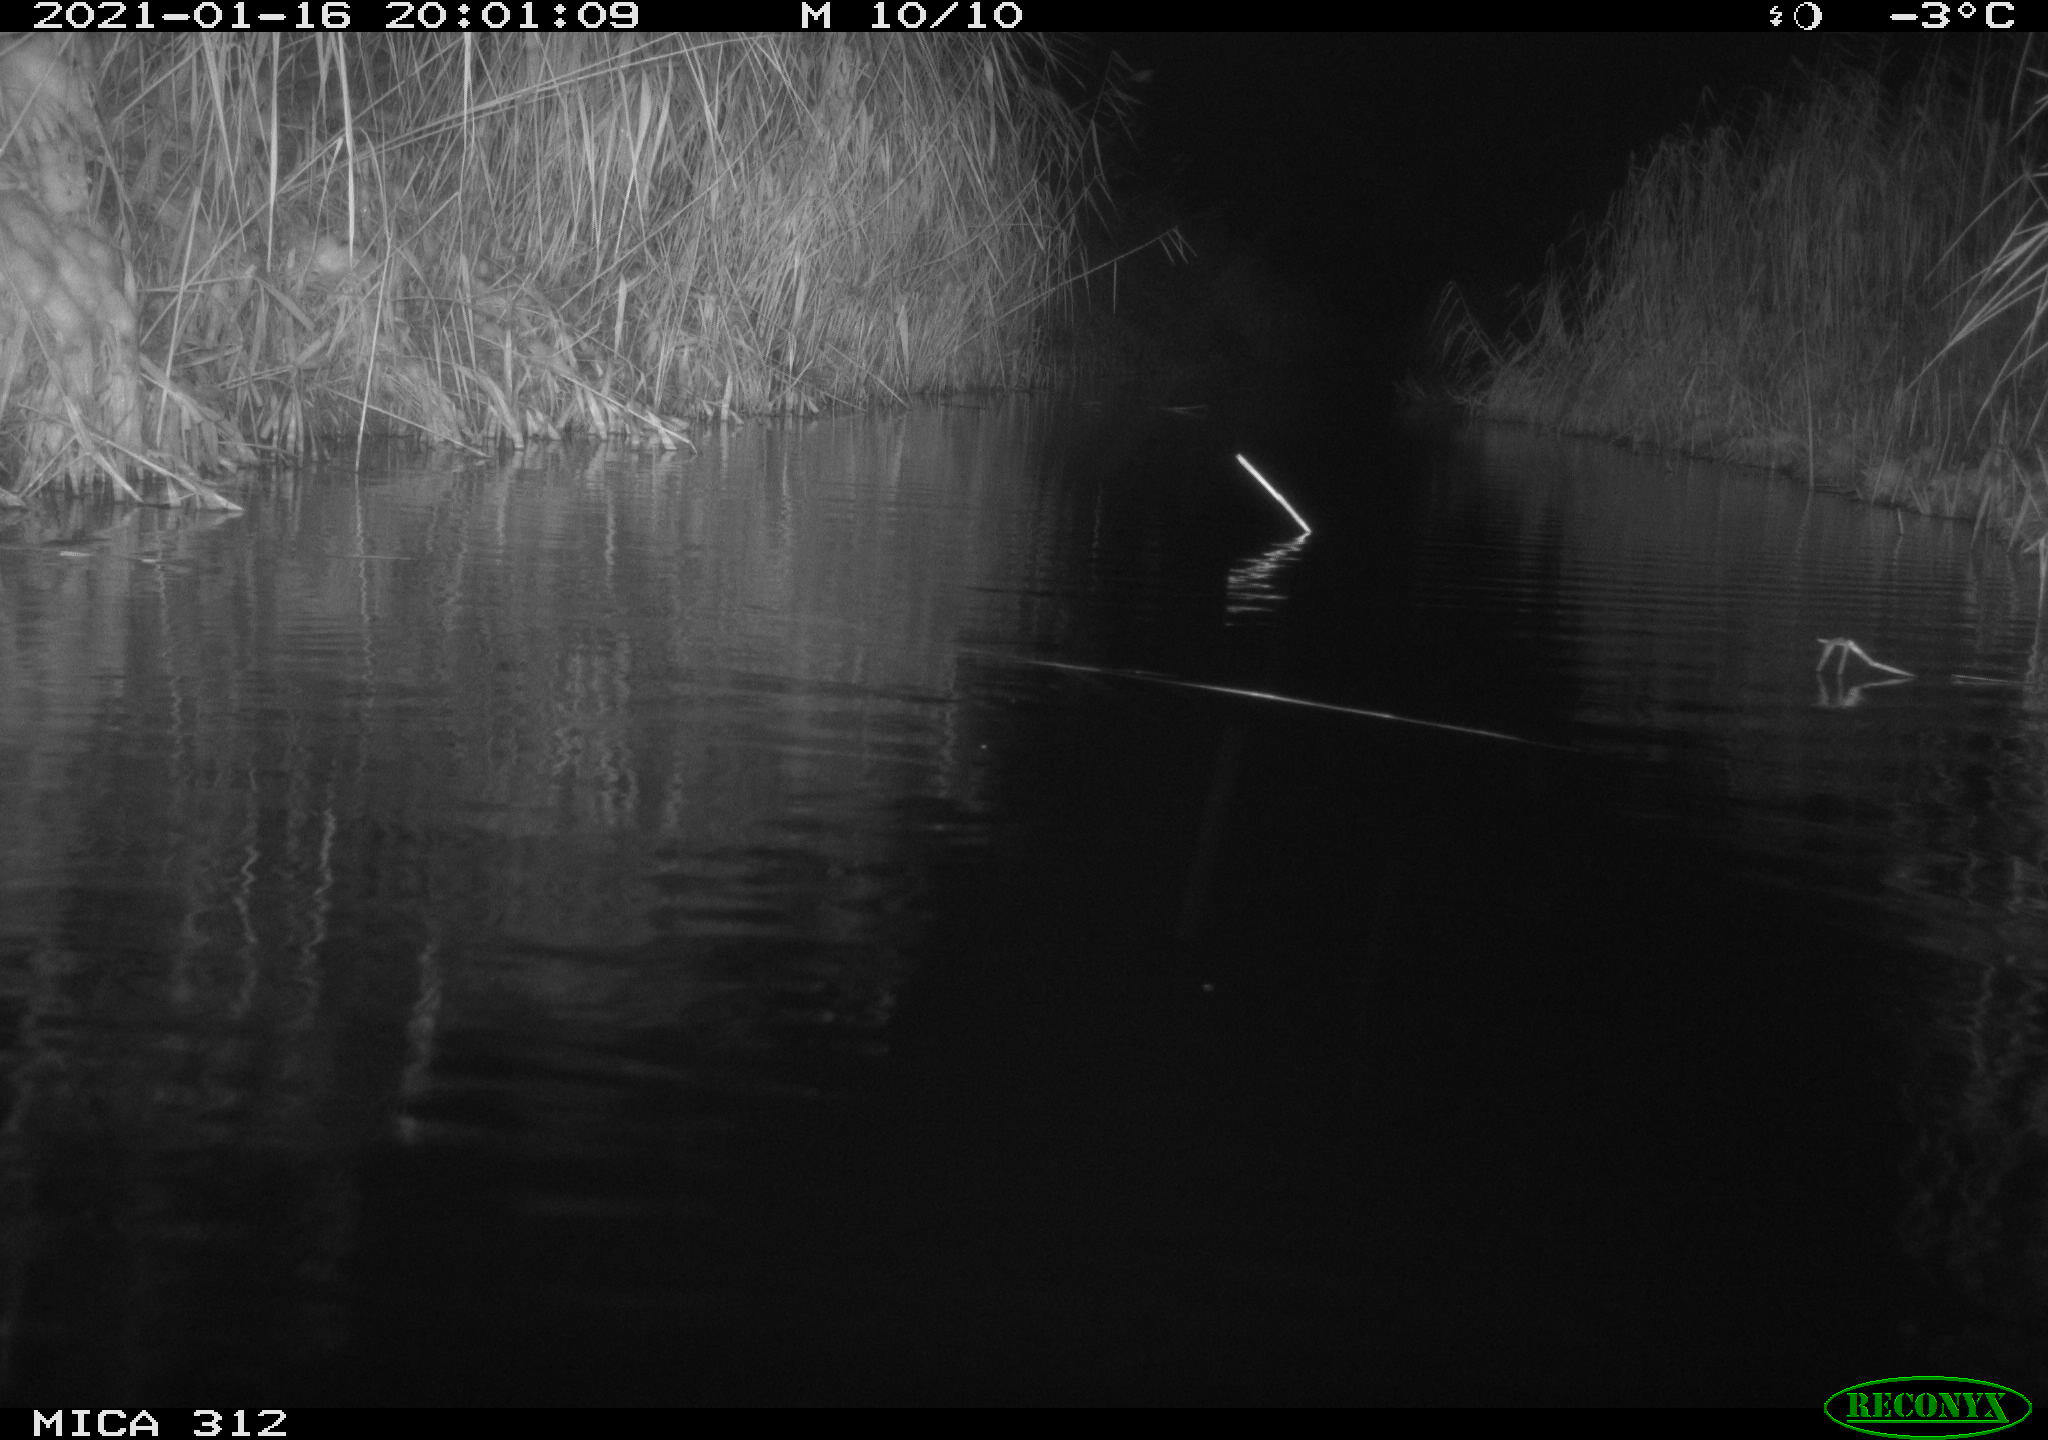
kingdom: Animalia
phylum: Chordata
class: Mammalia
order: Rodentia
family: Muridae
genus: Rattus
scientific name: Rattus norvegicus
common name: Brown rat
